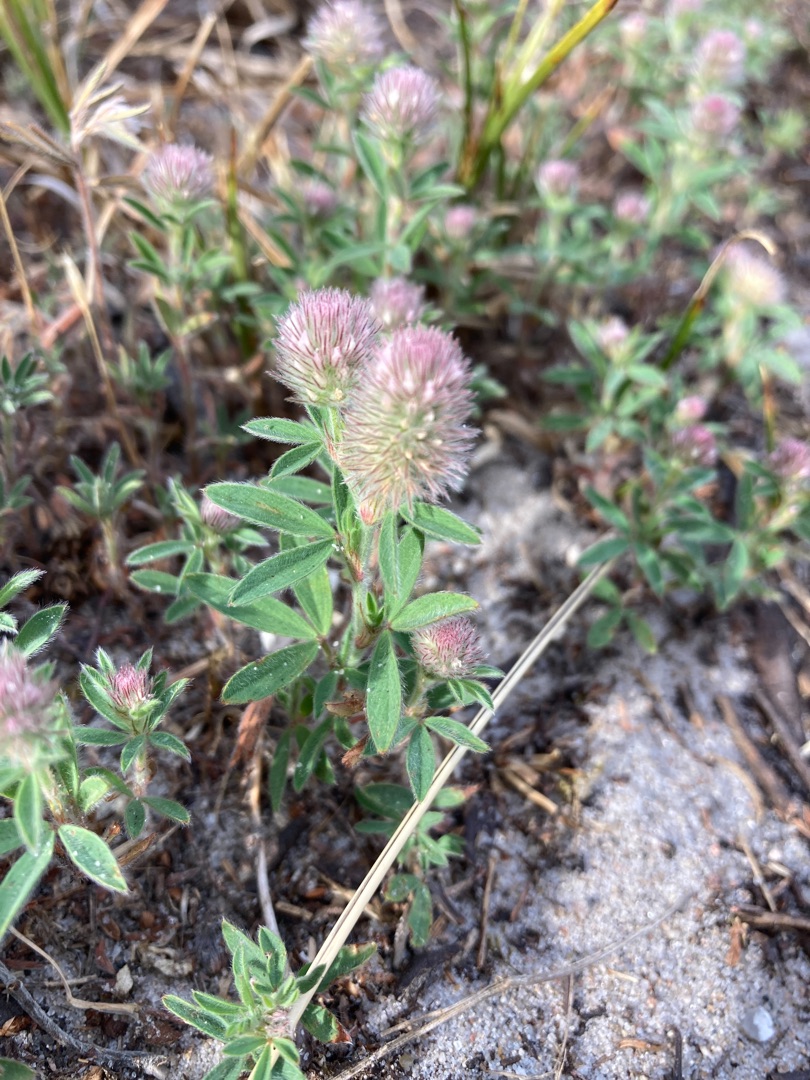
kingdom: Plantae
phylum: Tracheophyta
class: Magnoliopsida
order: Fabales
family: Fabaceae
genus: Trifolium
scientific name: Trifolium arvense
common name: Hare-kløver
